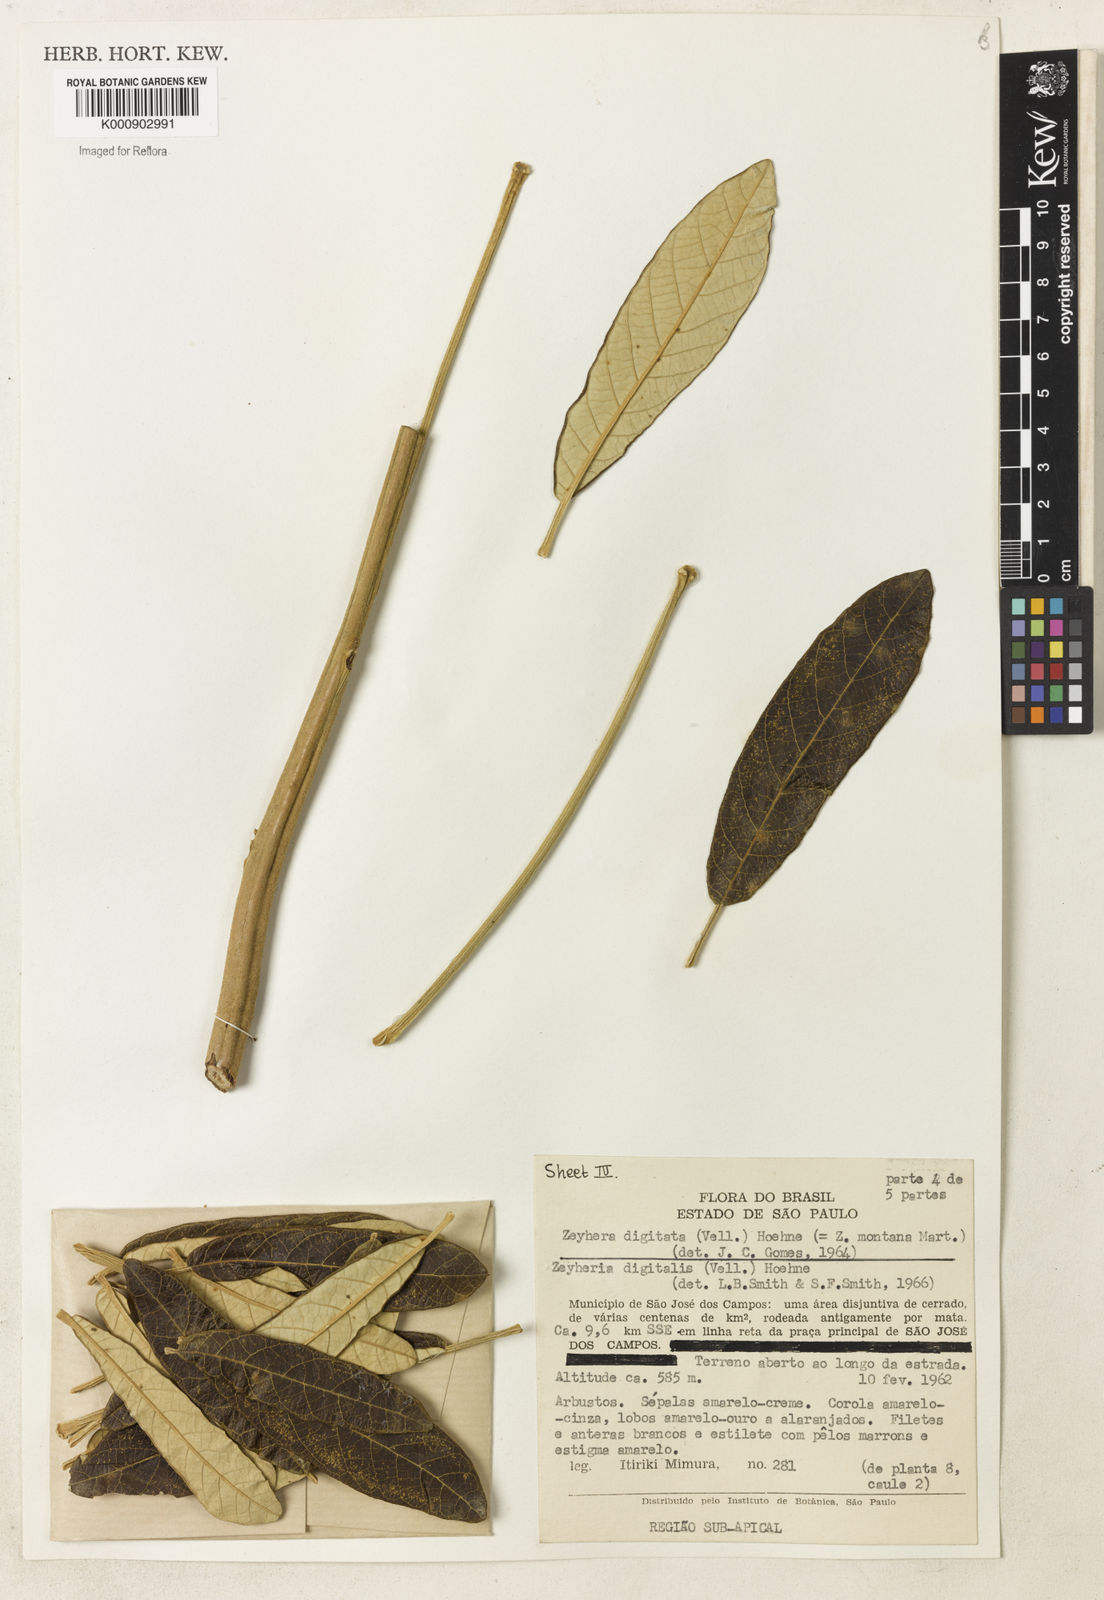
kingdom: Plantae
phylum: Tracheophyta
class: Magnoliopsida
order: Lamiales
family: Bignoniaceae
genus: Zeyheria
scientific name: Zeyheria
